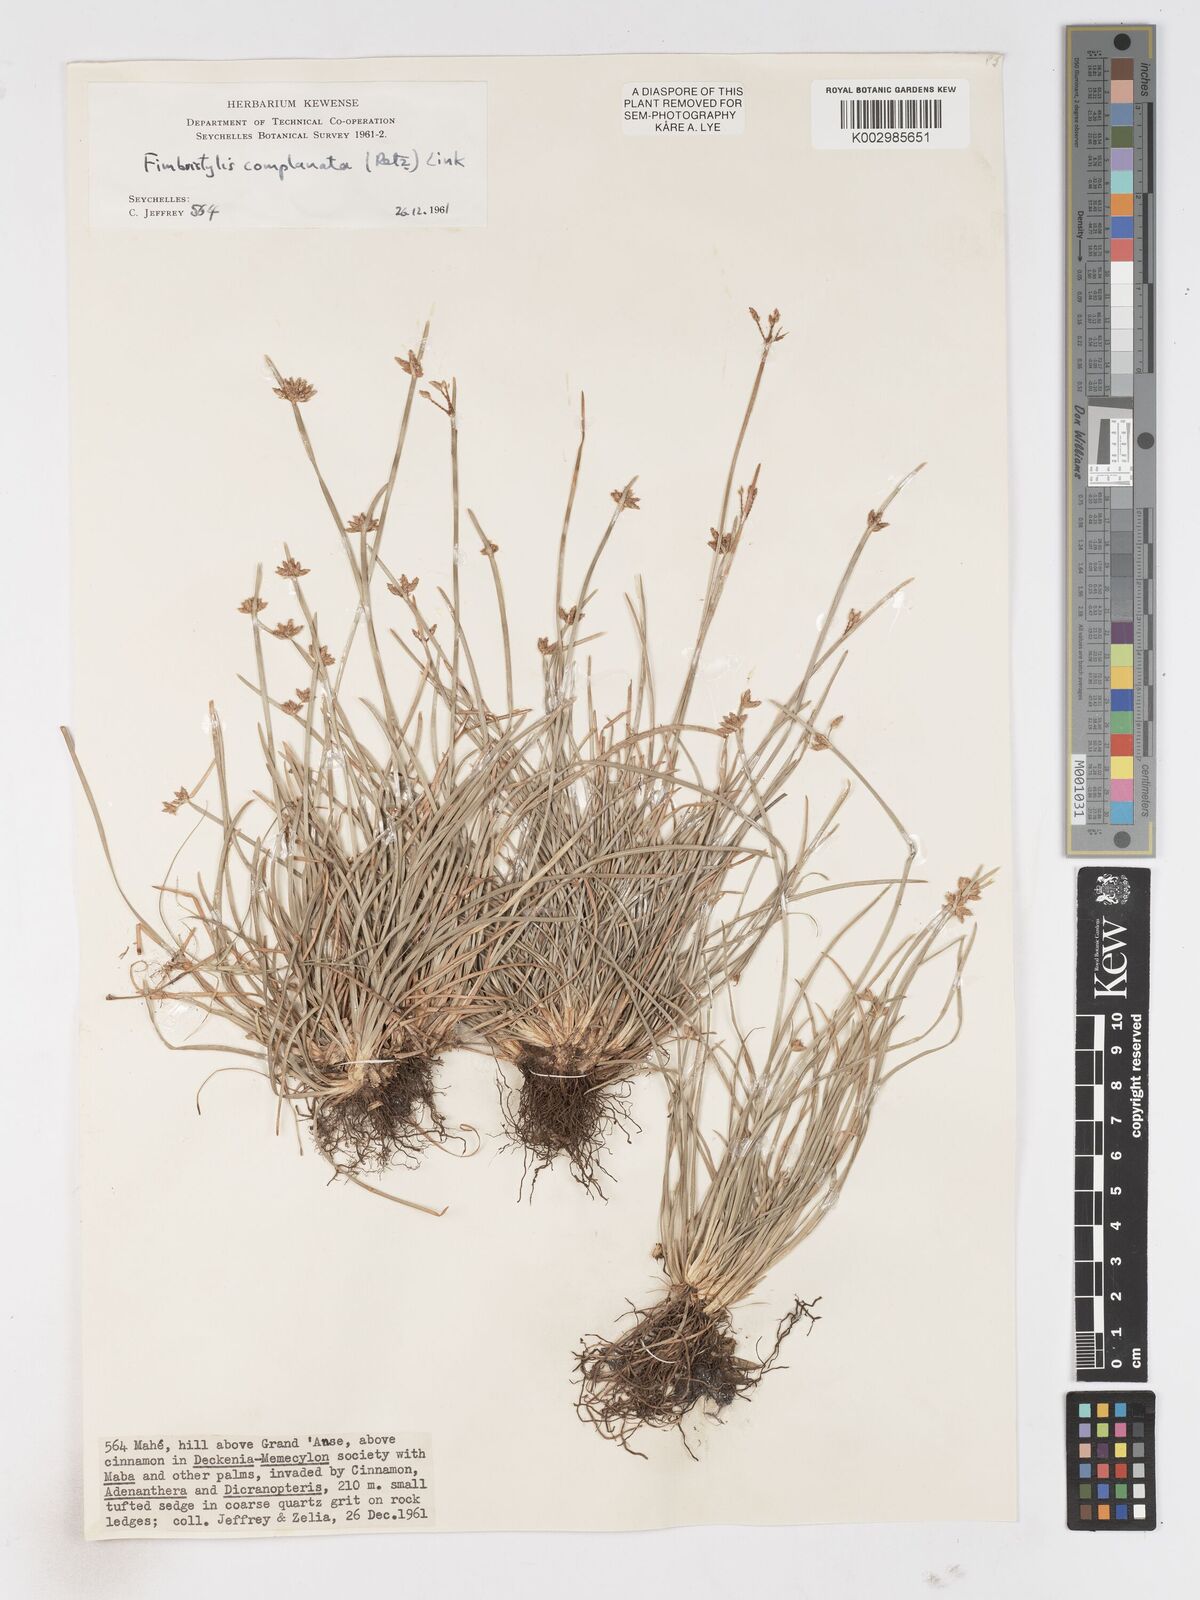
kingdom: Plantae
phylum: Tracheophyta
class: Liliopsida
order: Poales
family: Cyperaceae
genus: Fimbristylis
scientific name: Fimbristylis complanata
